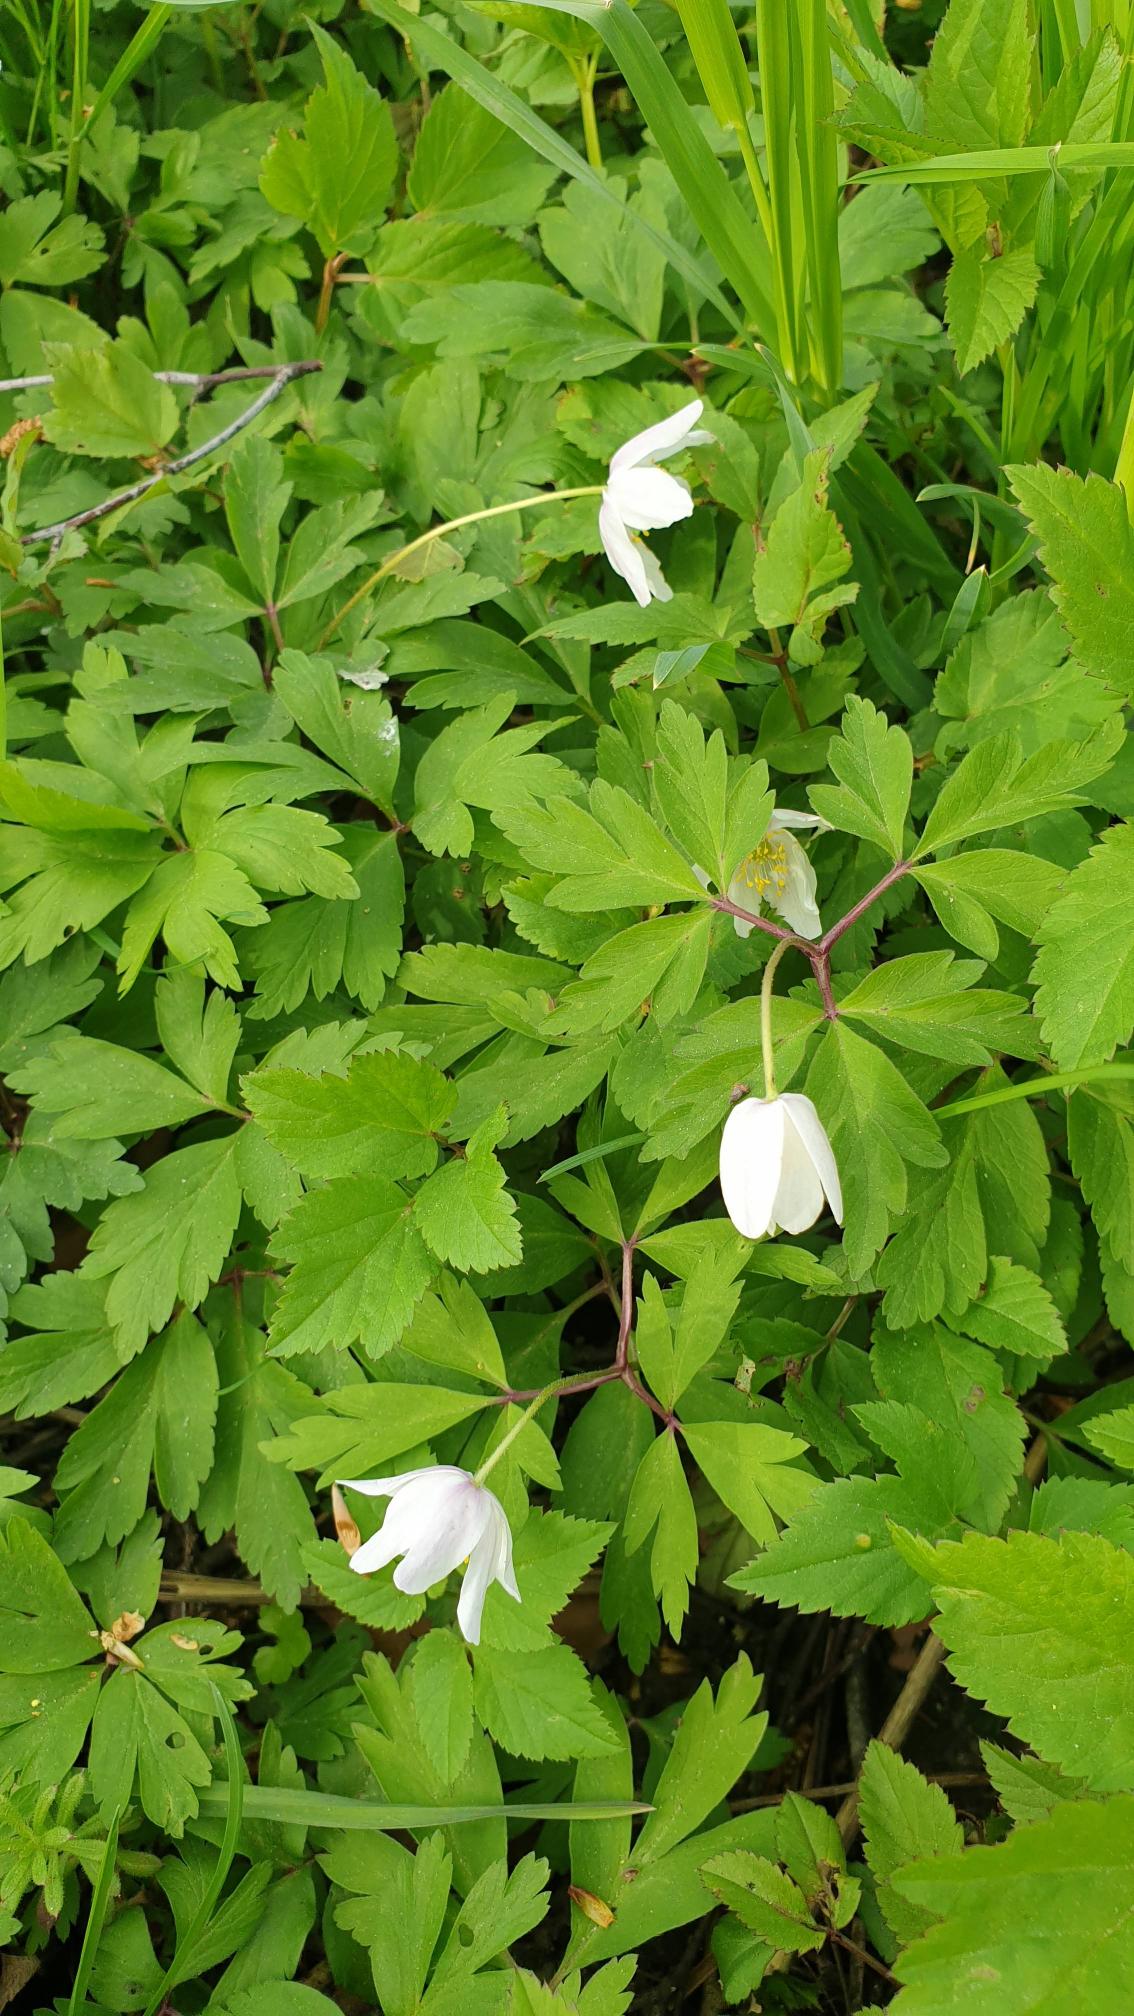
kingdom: Plantae
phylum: Tracheophyta
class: Magnoliopsida
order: Ranunculales
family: Ranunculaceae
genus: Anemone
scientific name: Anemone nemorosa
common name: Hvid anemone
